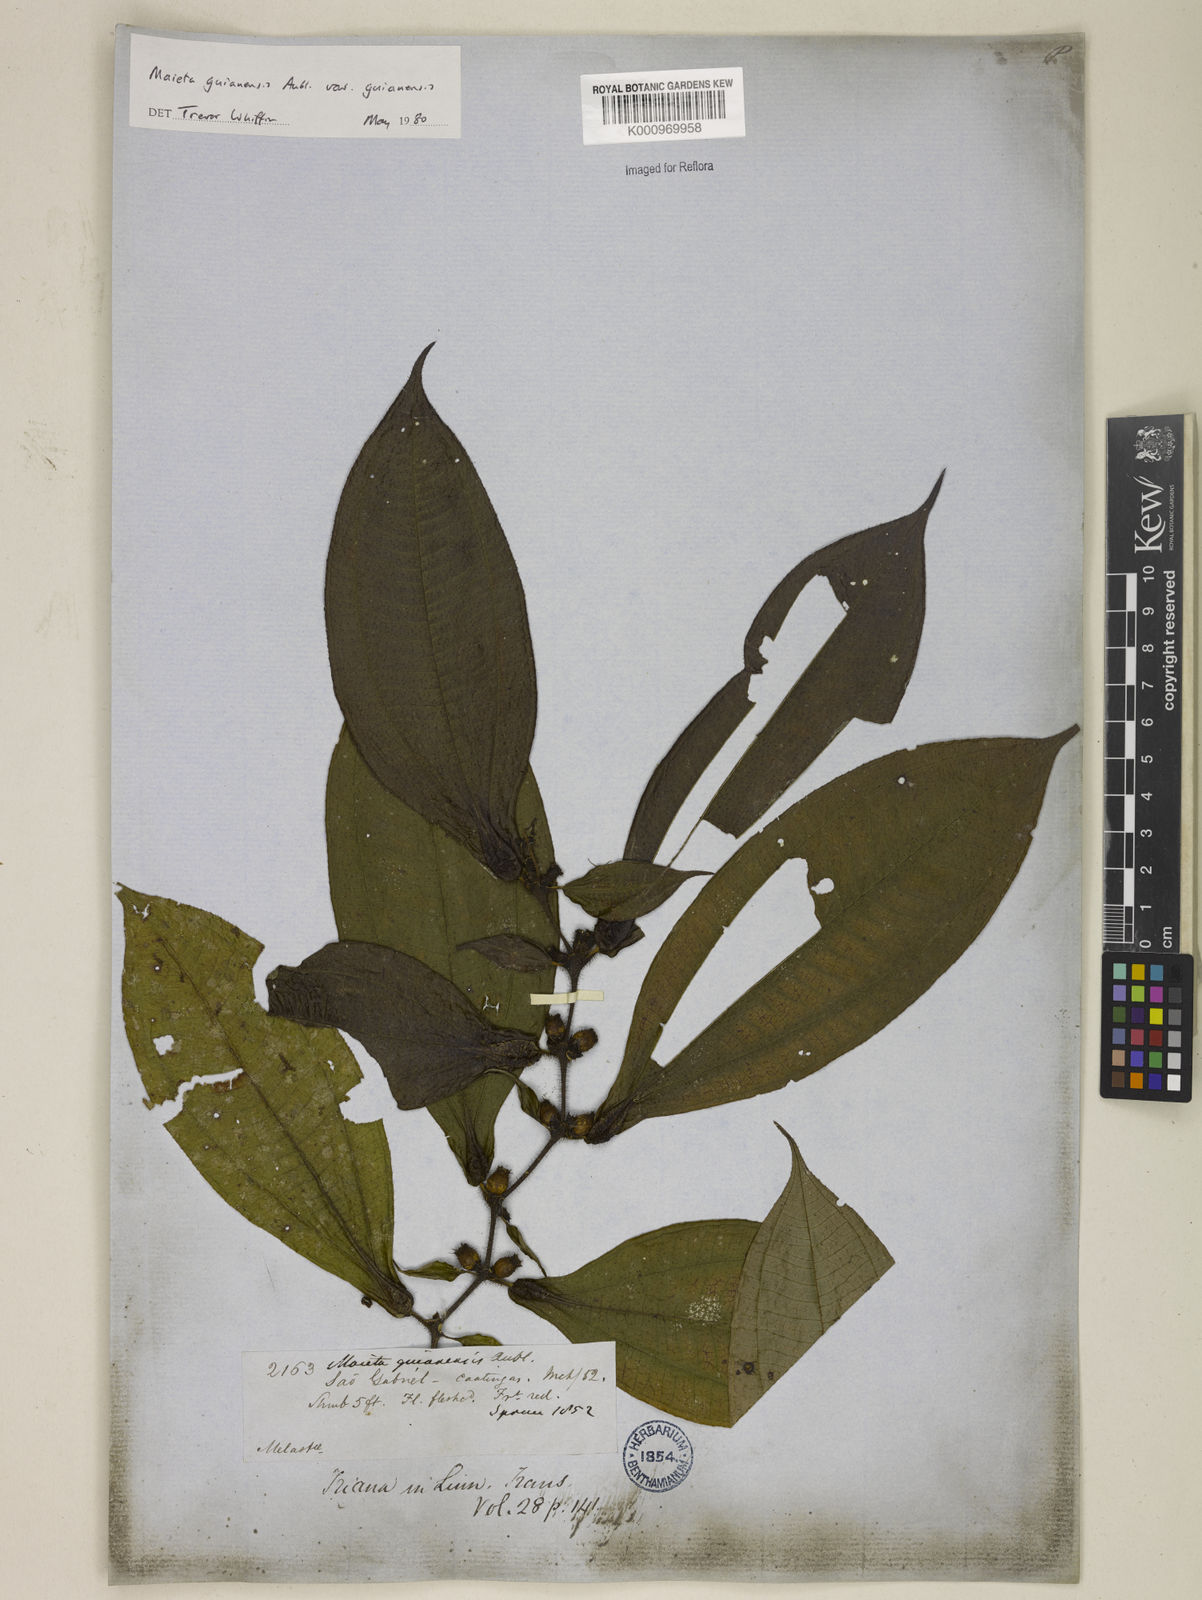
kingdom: Plantae
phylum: Tracheophyta
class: Magnoliopsida
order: Myrtales
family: Melastomataceae
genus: Miconia
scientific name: Miconia mayeta
